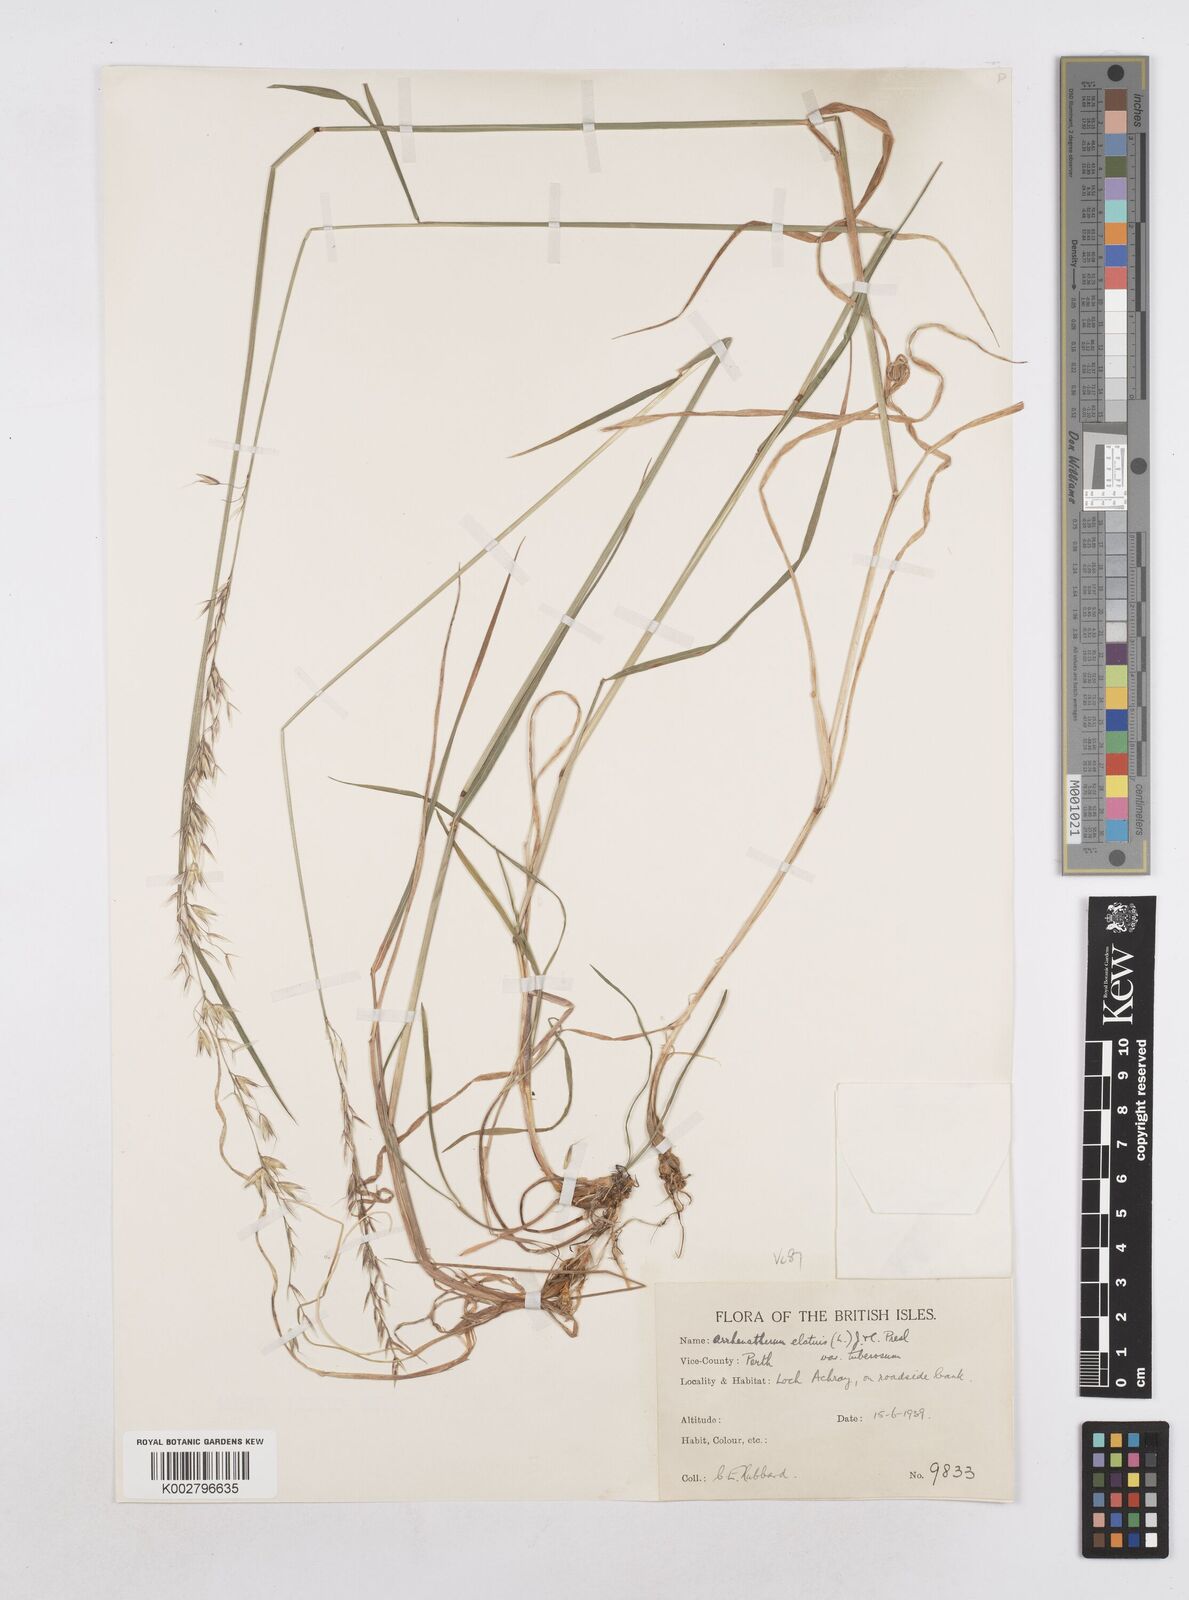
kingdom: Plantae
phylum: Tracheophyta
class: Liliopsida
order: Poales
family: Poaceae
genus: Arrhenatherum
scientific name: Arrhenatherum elatius
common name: Tall oatgrass
